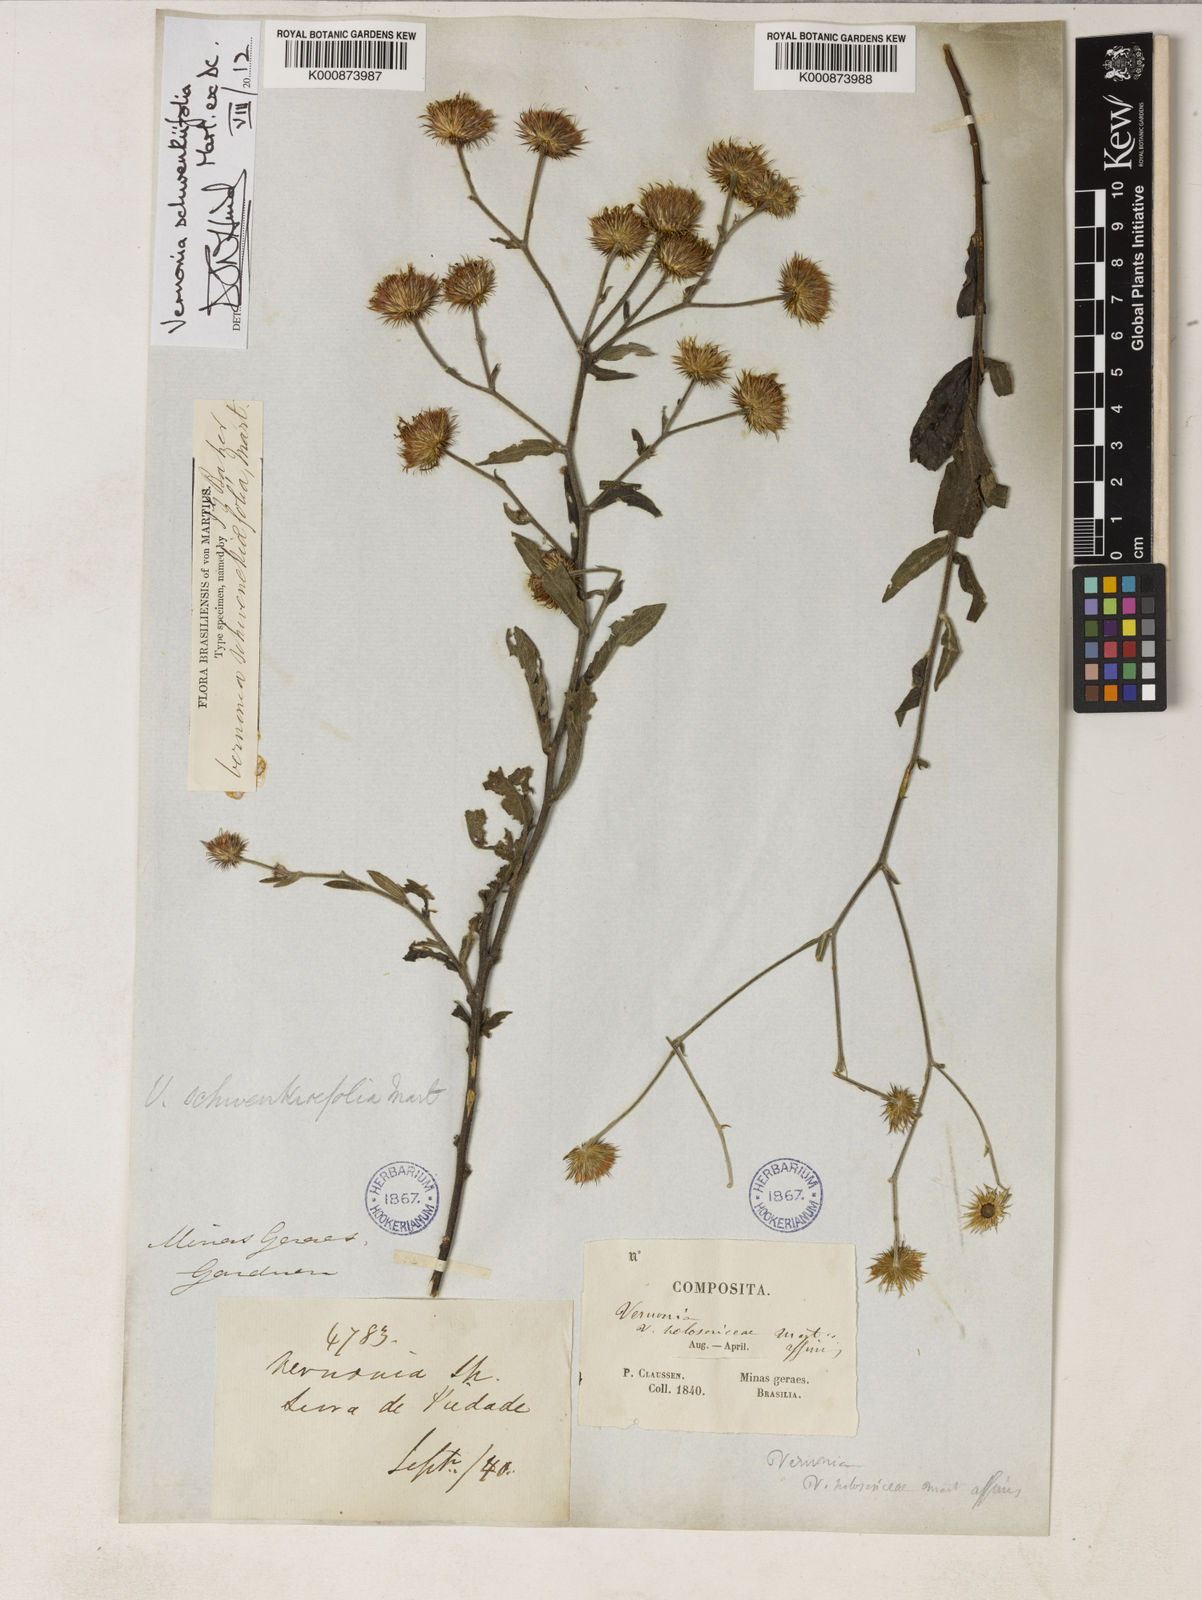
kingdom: Plantae
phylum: Tracheophyta
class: Magnoliopsida
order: Asterales
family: Asteraceae
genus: Vernonia
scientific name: Vernonia
